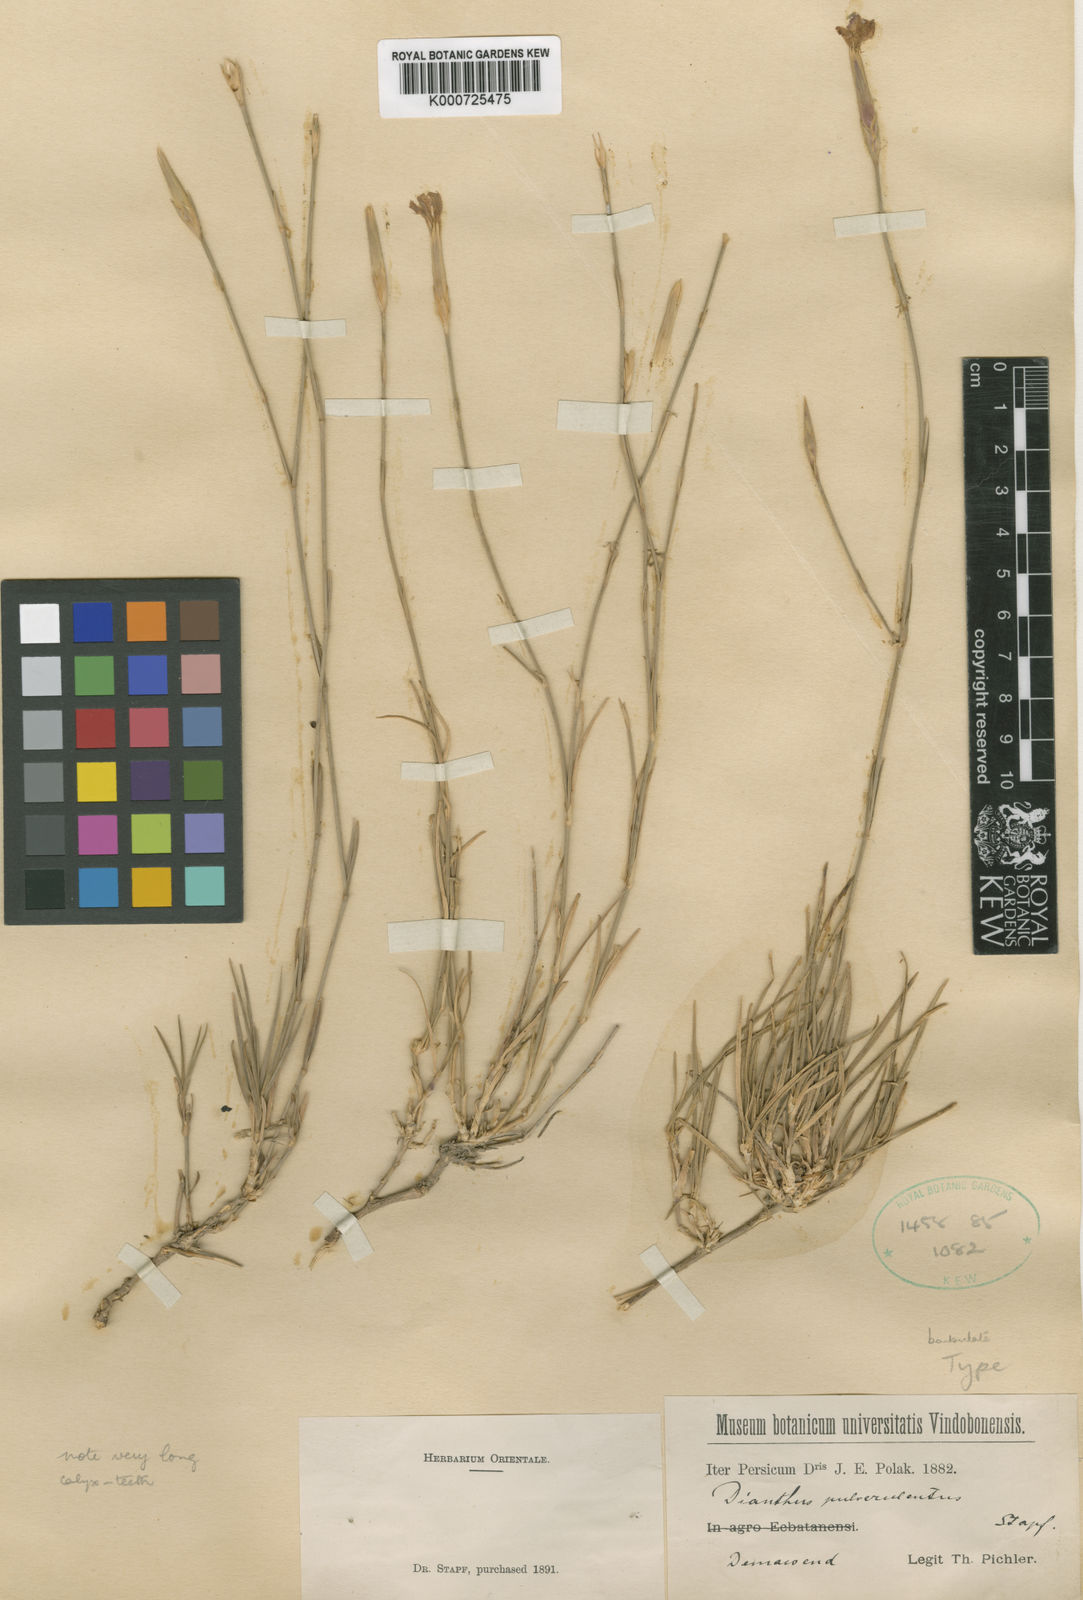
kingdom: Plantae
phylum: Tracheophyta
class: Magnoliopsida
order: Caryophyllales
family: Caryophyllaceae
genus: Dianthus
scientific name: Dianthus orientalis
